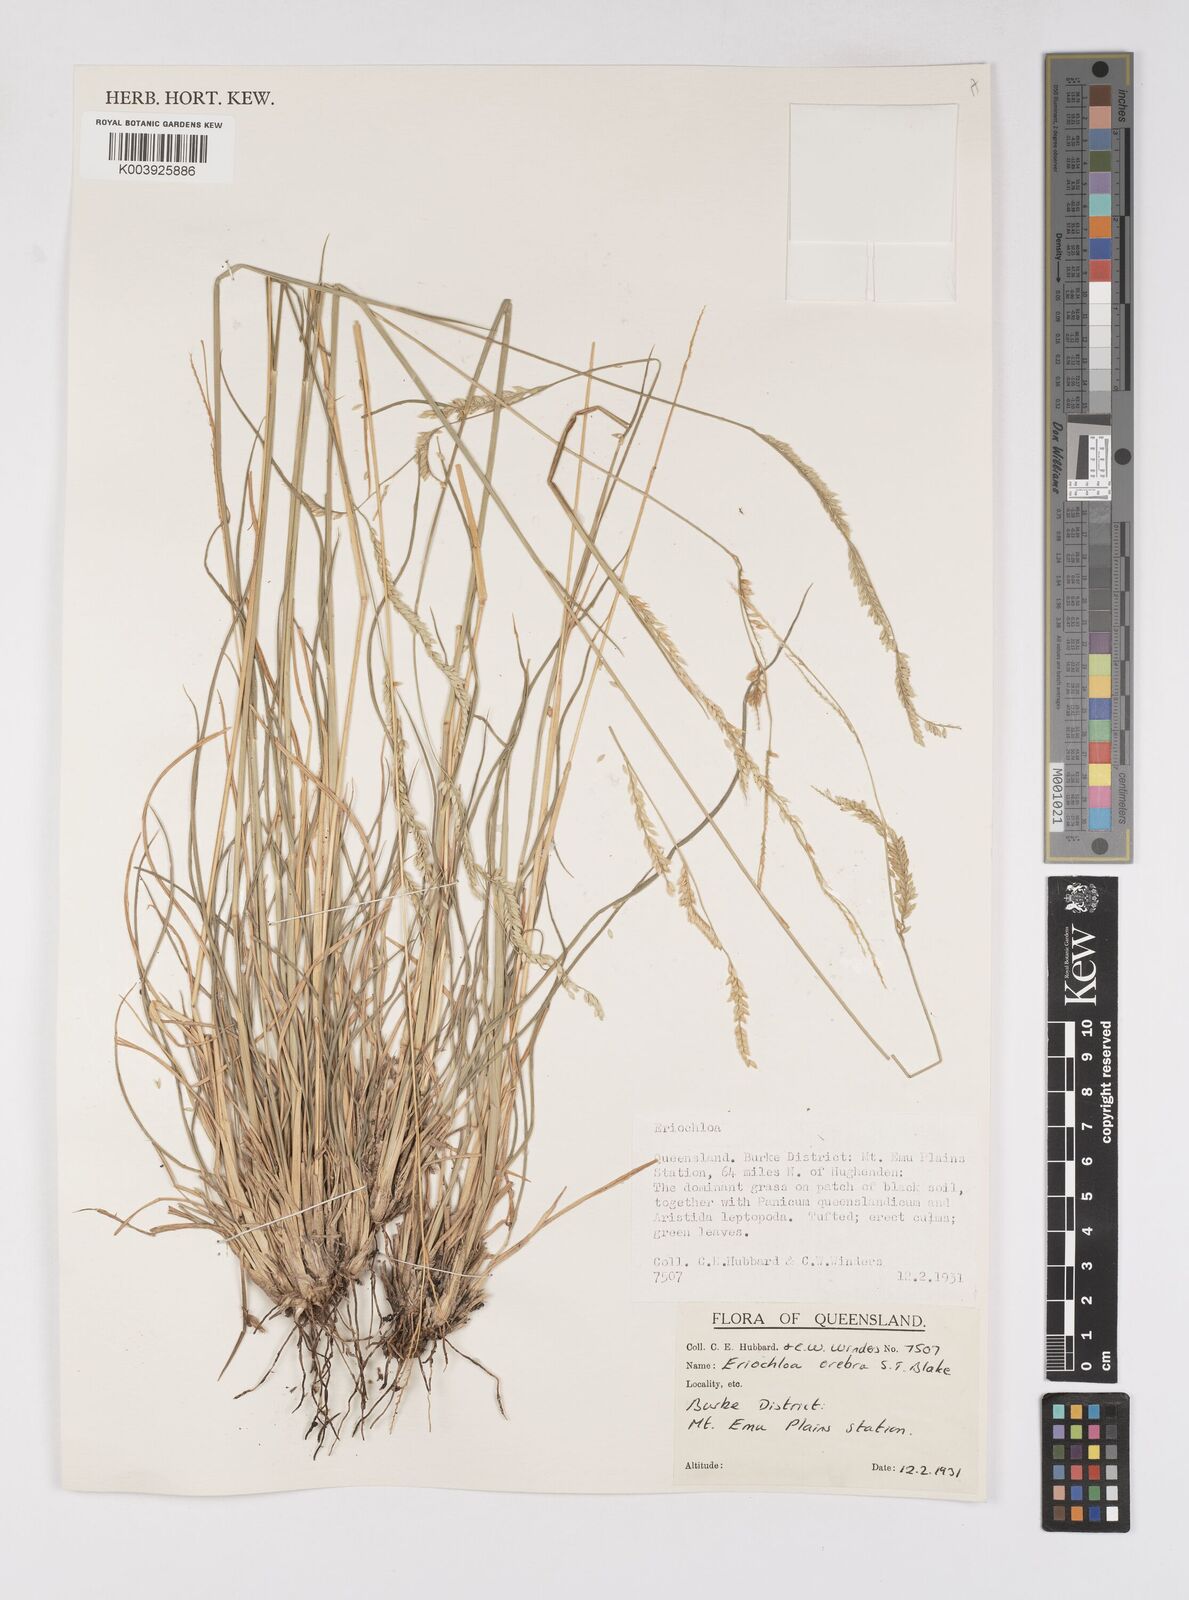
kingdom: Plantae
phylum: Tracheophyta
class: Liliopsida
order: Poales
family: Poaceae
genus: Eriochloa
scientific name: Eriochloa crebra
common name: Cup grass
